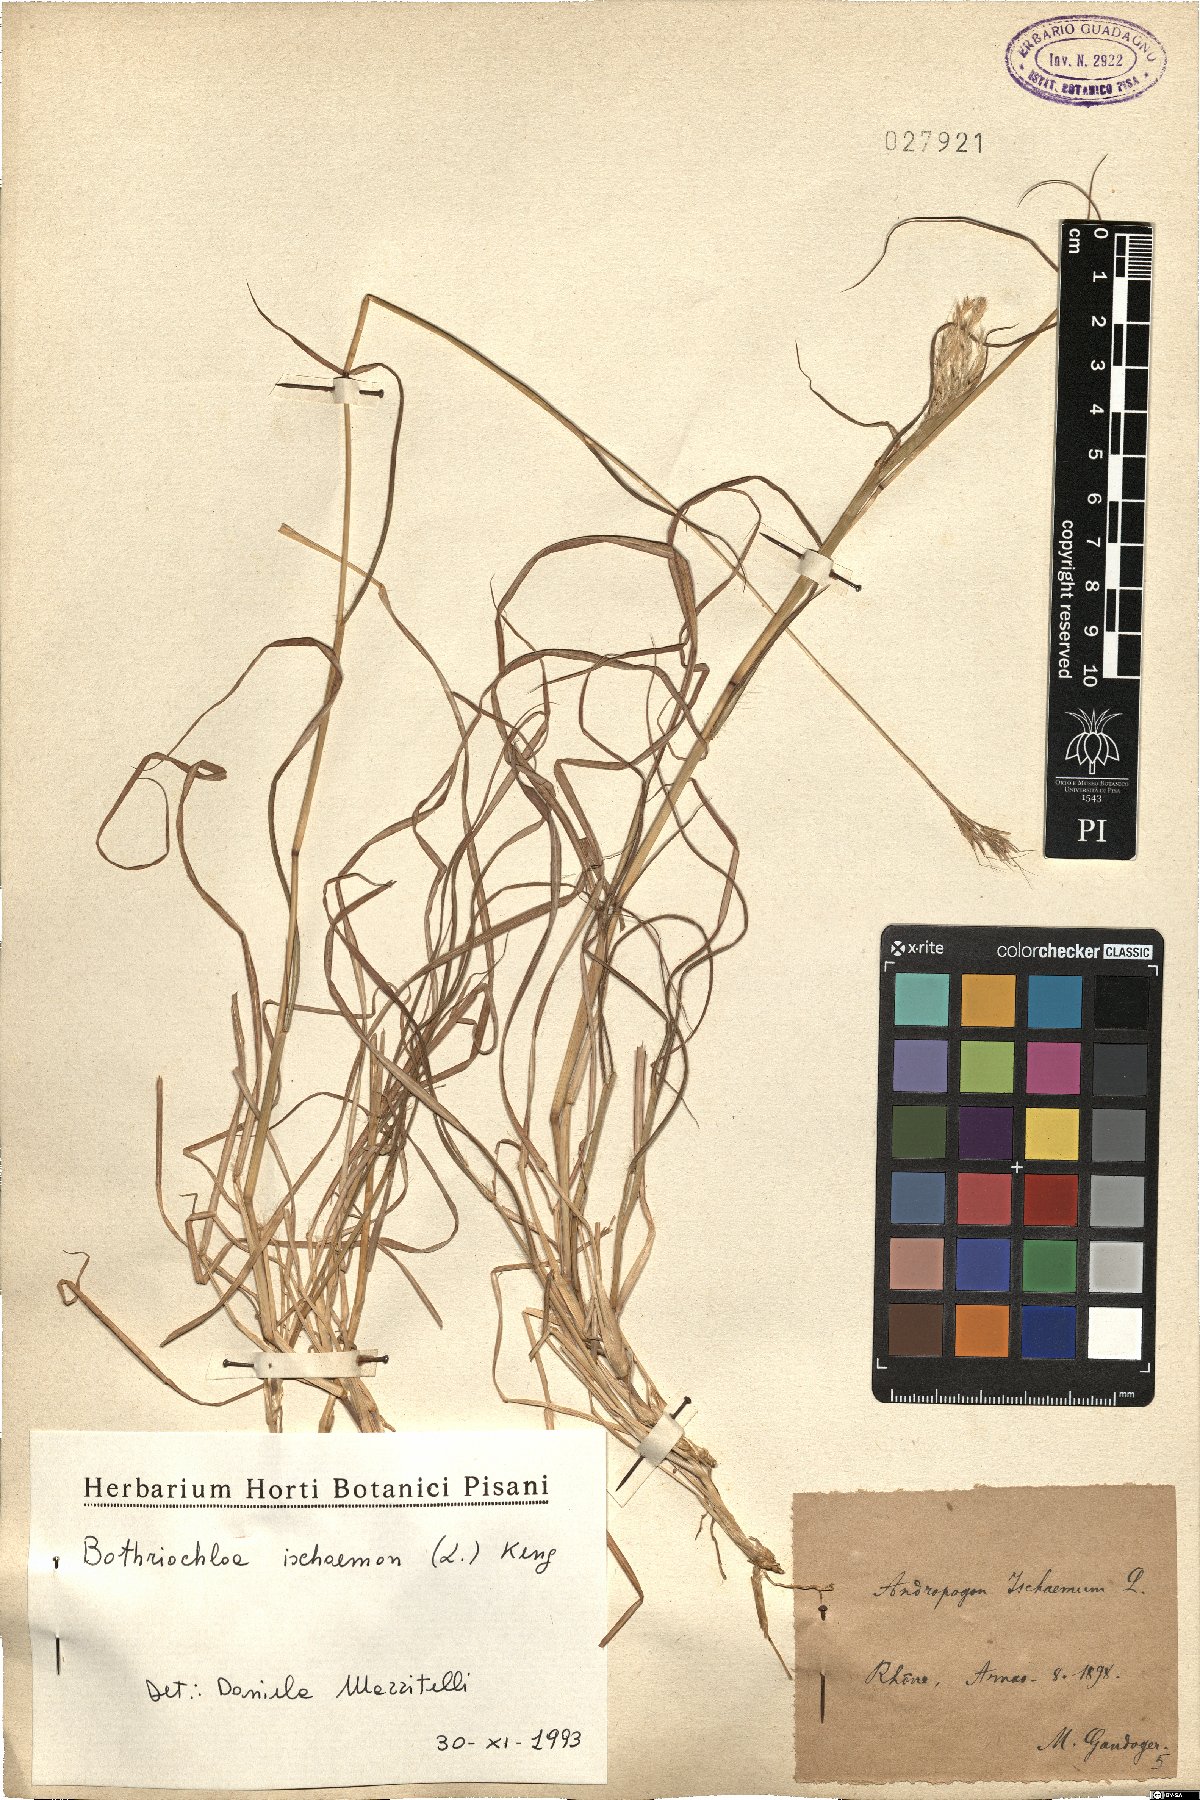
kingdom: Plantae
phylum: Tracheophyta
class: Liliopsida
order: Poales
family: Poaceae
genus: Bothriochloa
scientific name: Bothriochloa ischaemum
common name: Yellow bluestem
